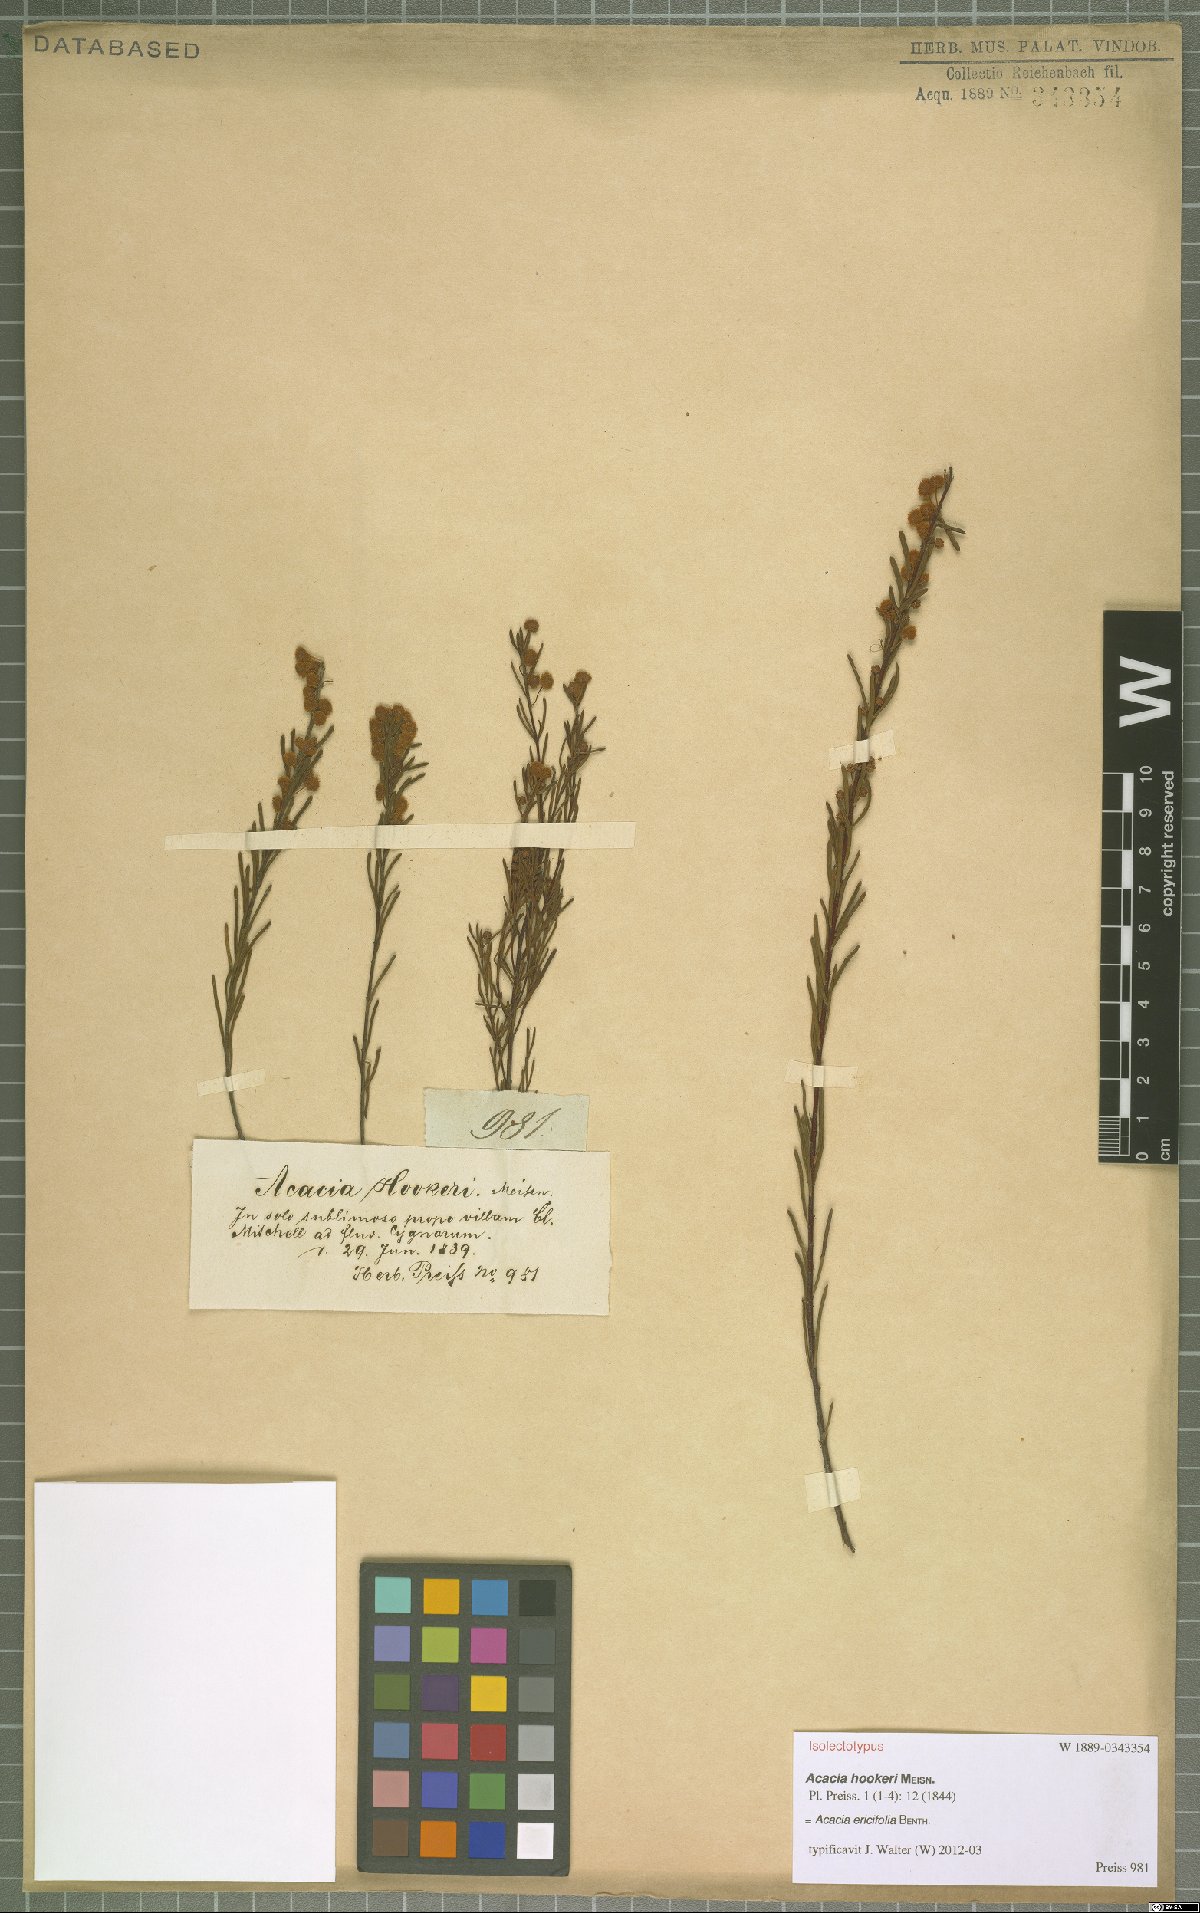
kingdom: Plantae
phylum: Tracheophyta
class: Magnoliopsida
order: Fabales
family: Fabaceae
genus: Acacia
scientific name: Acacia ericifolia
